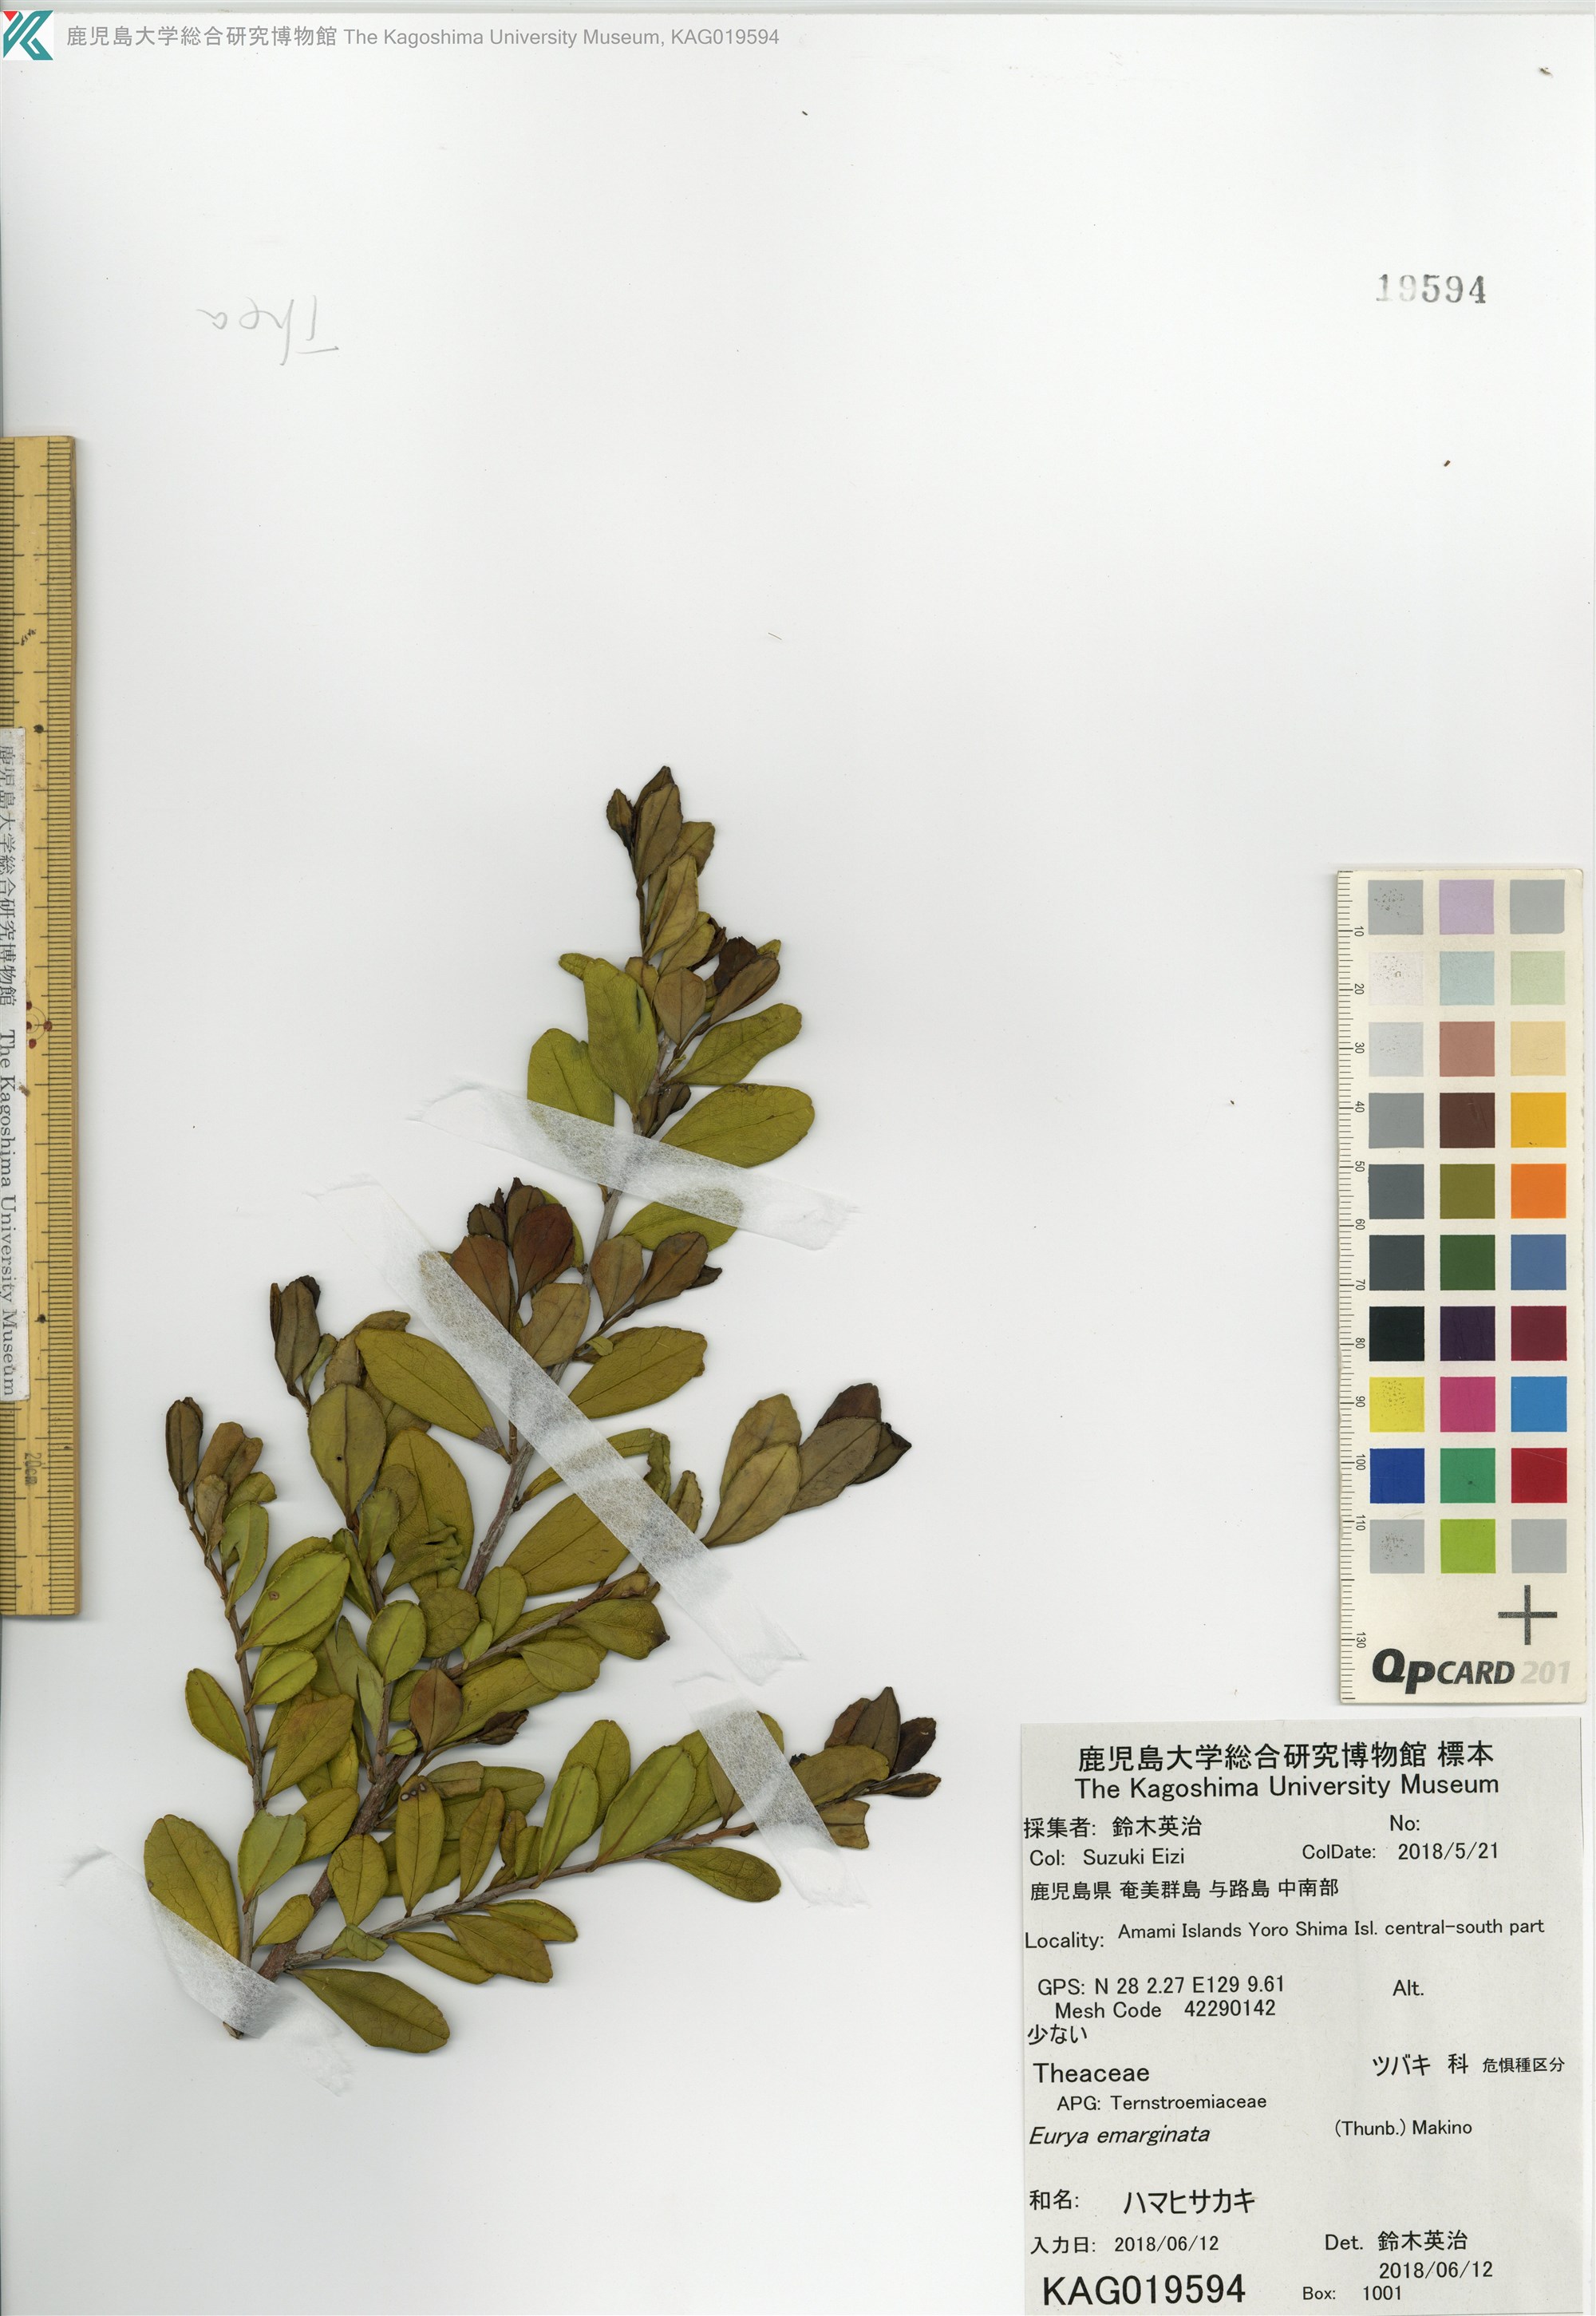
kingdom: Plantae
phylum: Tracheophyta
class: Magnoliopsida
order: Ericales
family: Pentaphylacaceae
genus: Eurya
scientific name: Eurya emarginata
